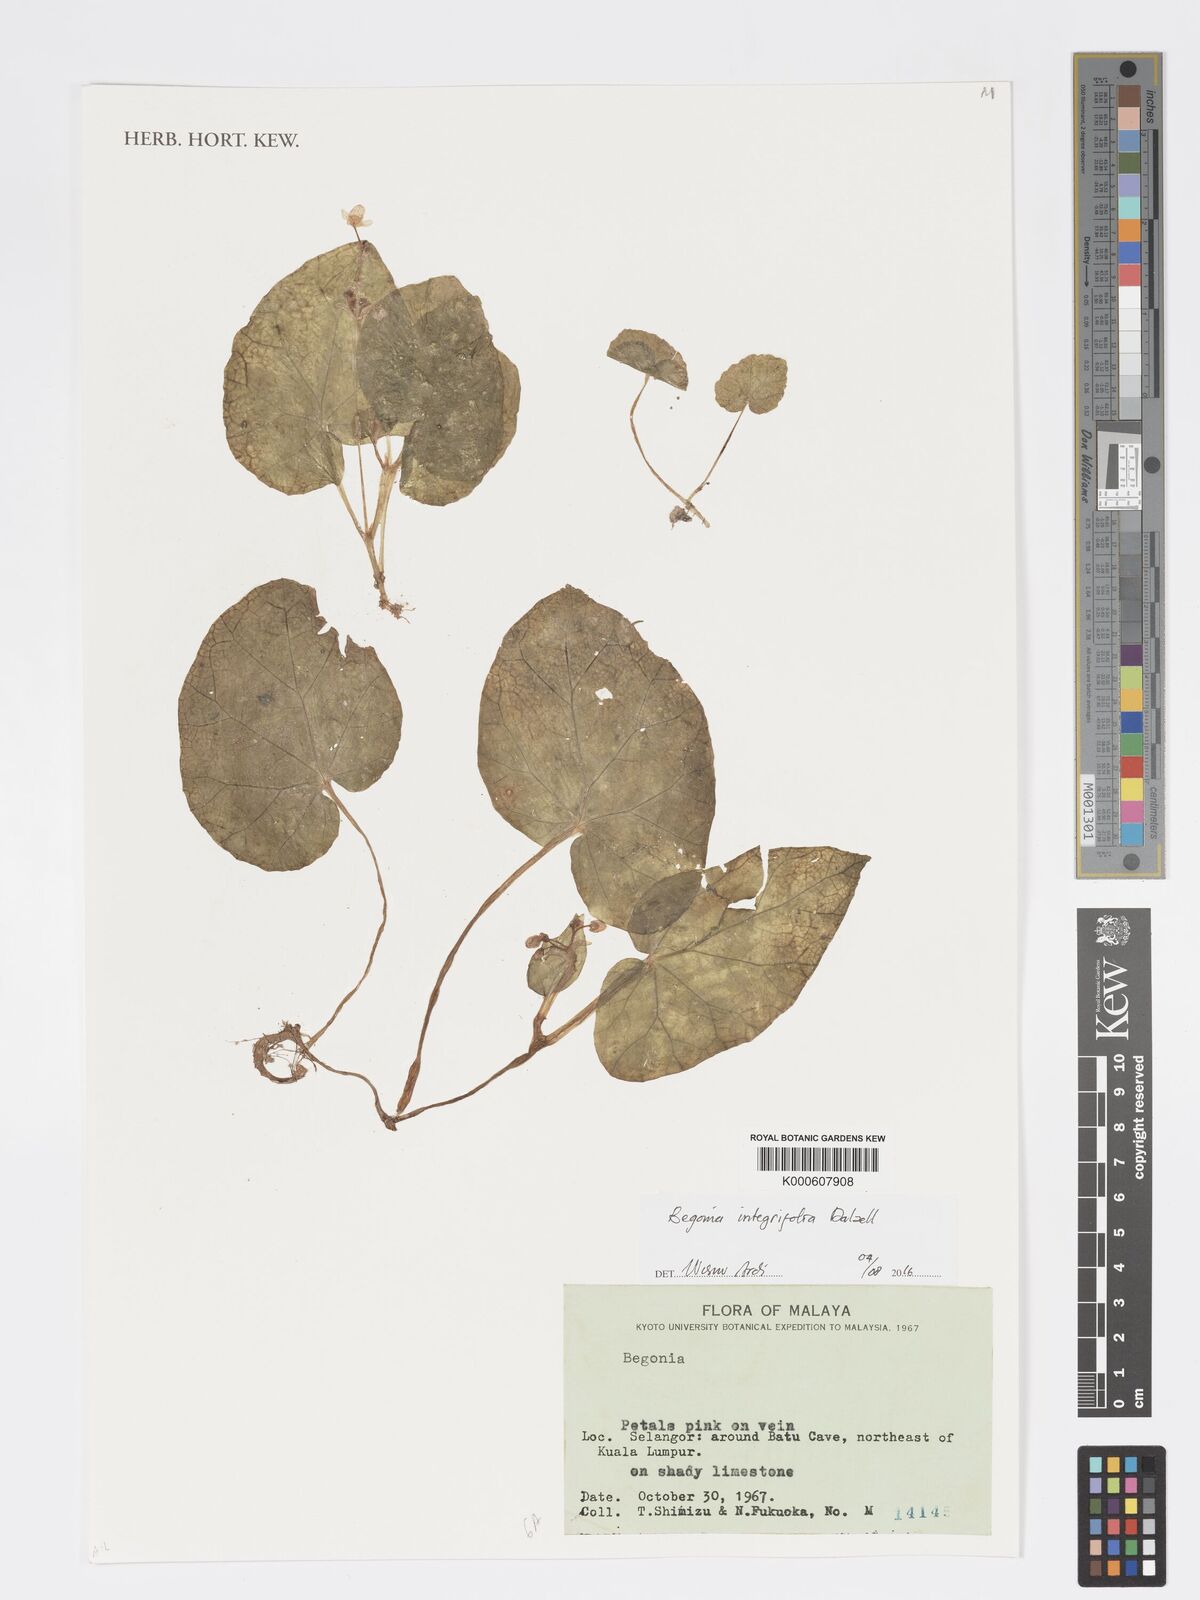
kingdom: Plantae
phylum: Tracheophyta
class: Magnoliopsida
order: Cucurbitales
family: Begoniaceae
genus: Begonia
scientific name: Begonia integrifolia
